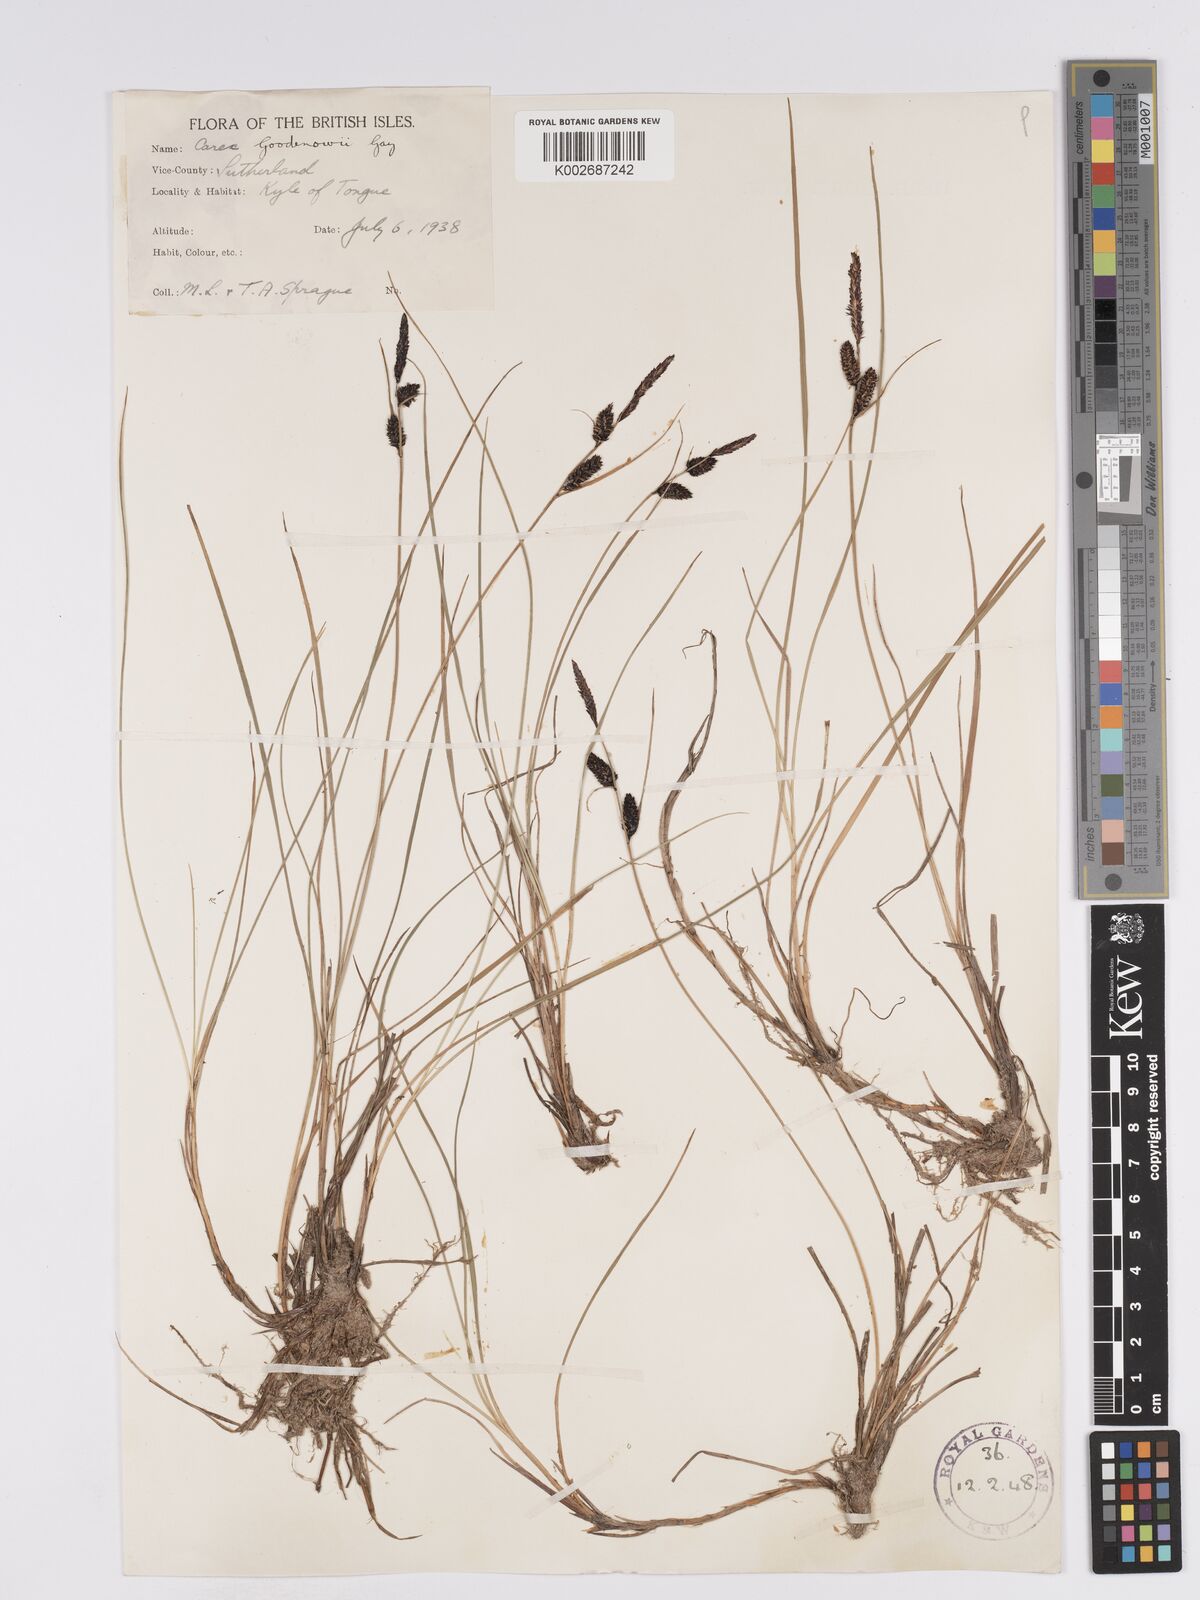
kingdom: Plantae
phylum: Tracheophyta
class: Liliopsida
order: Poales
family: Cyperaceae
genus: Carex
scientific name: Carex nigra
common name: Common sedge
